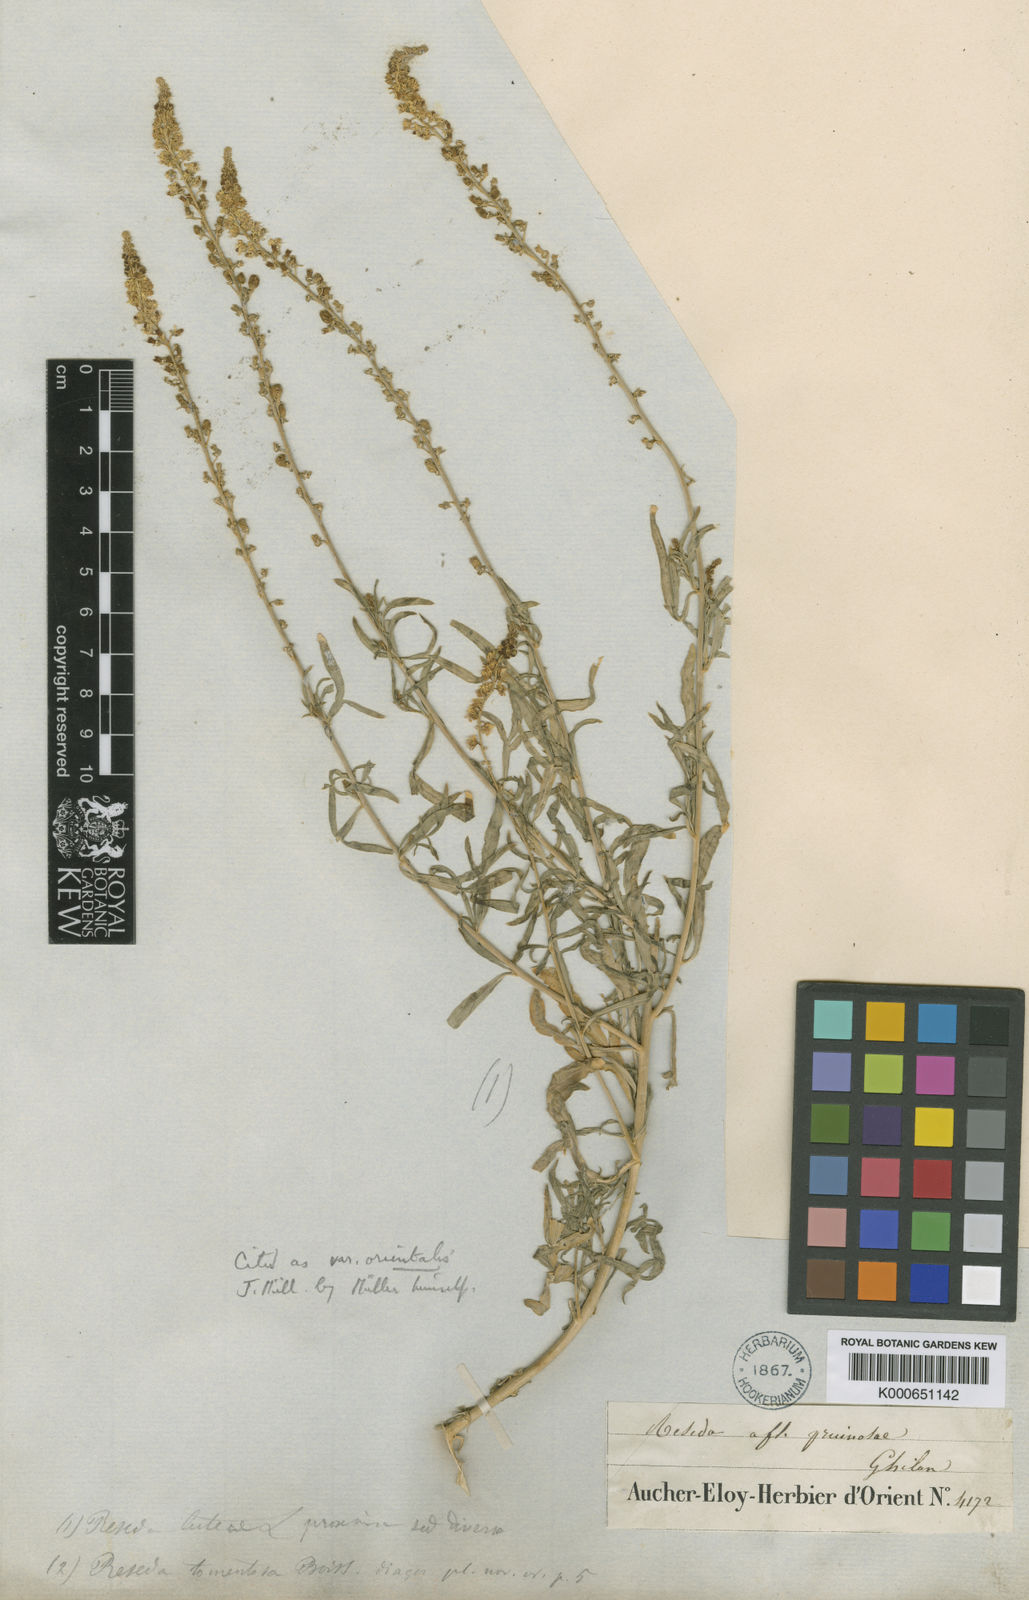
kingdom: Plantae
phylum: Tracheophyta
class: Magnoliopsida
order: Brassicales
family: Resedaceae
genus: Reseda
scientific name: Reseda lutea
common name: Wild mignonette
